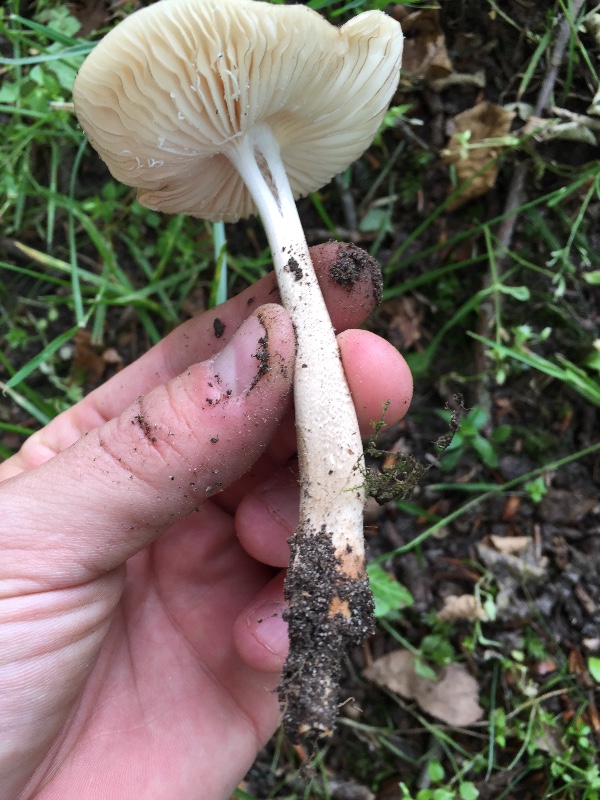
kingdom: Fungi
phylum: Basidiomycota
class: Agaricomycetes
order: Agaricales
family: Physalacriaceae
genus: Hymenopellis
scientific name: Hymenopellis radicata
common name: almindelig pælerodshat
